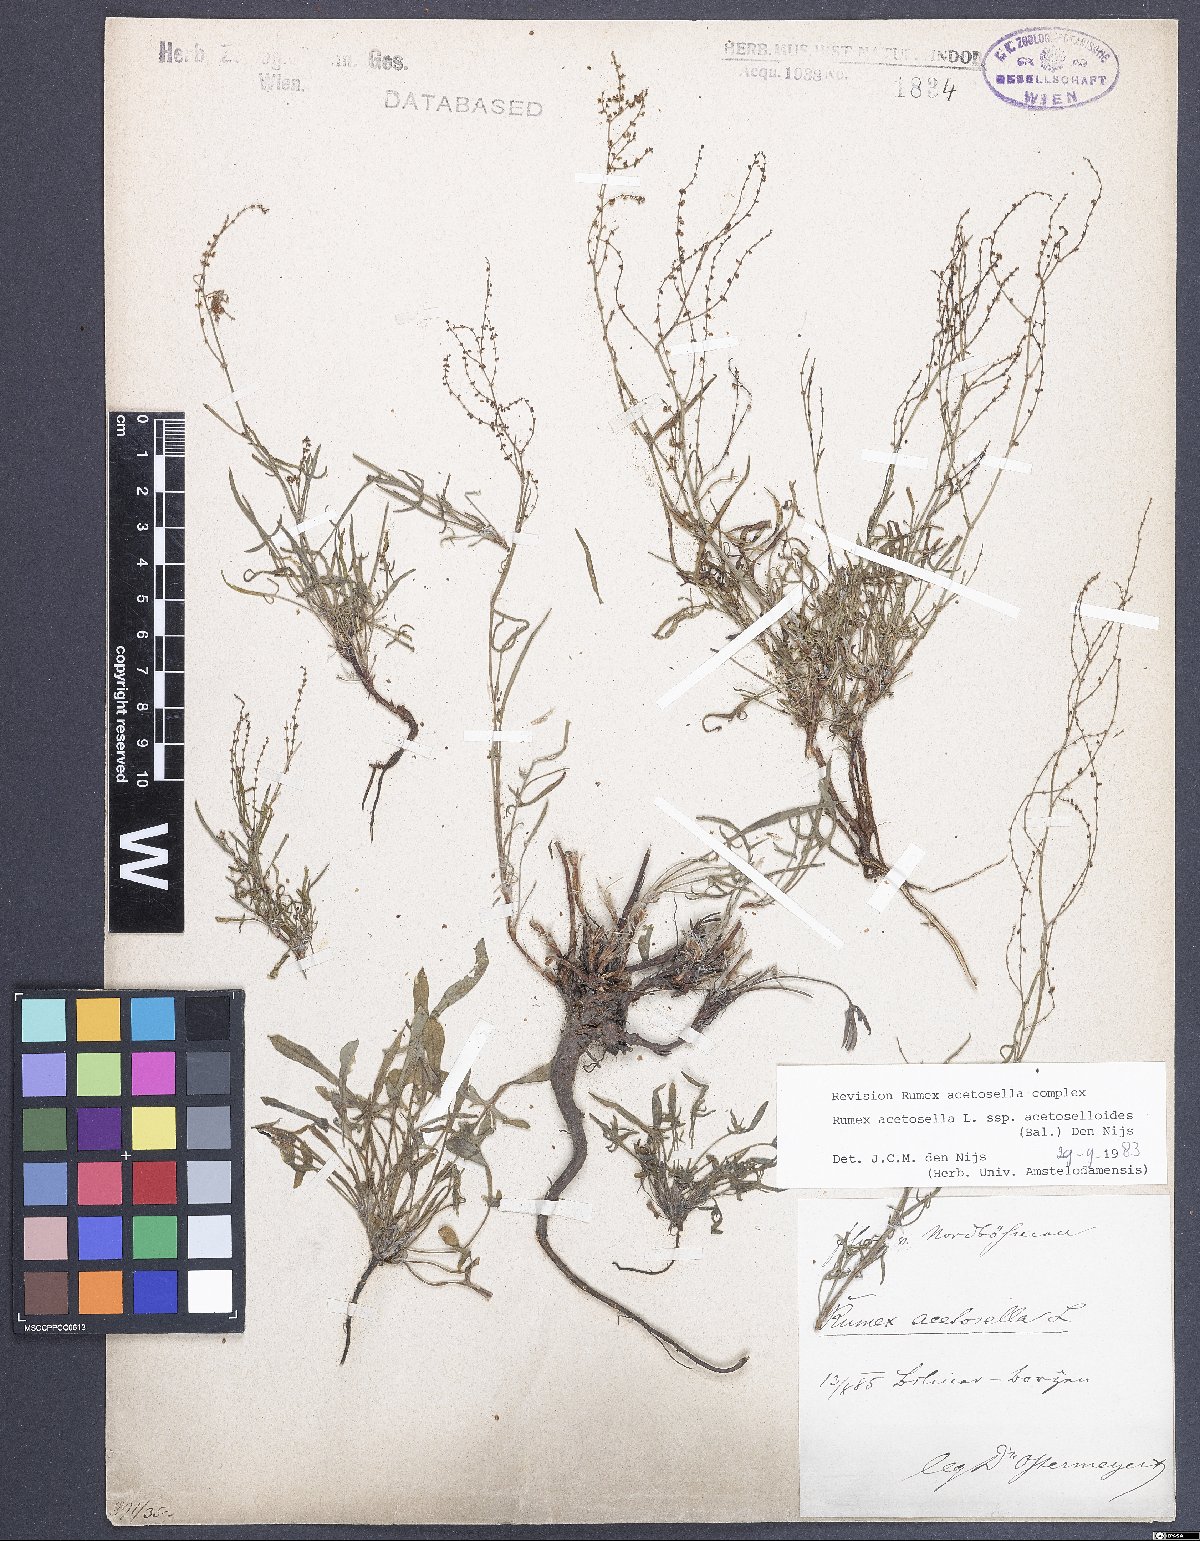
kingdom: Plantae
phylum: Tracheophyta
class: Magnoliopsida
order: Caryophyllales
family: Polygonaceae
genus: Rumex
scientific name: Rumex acetosella
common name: Common sheep sorrel
